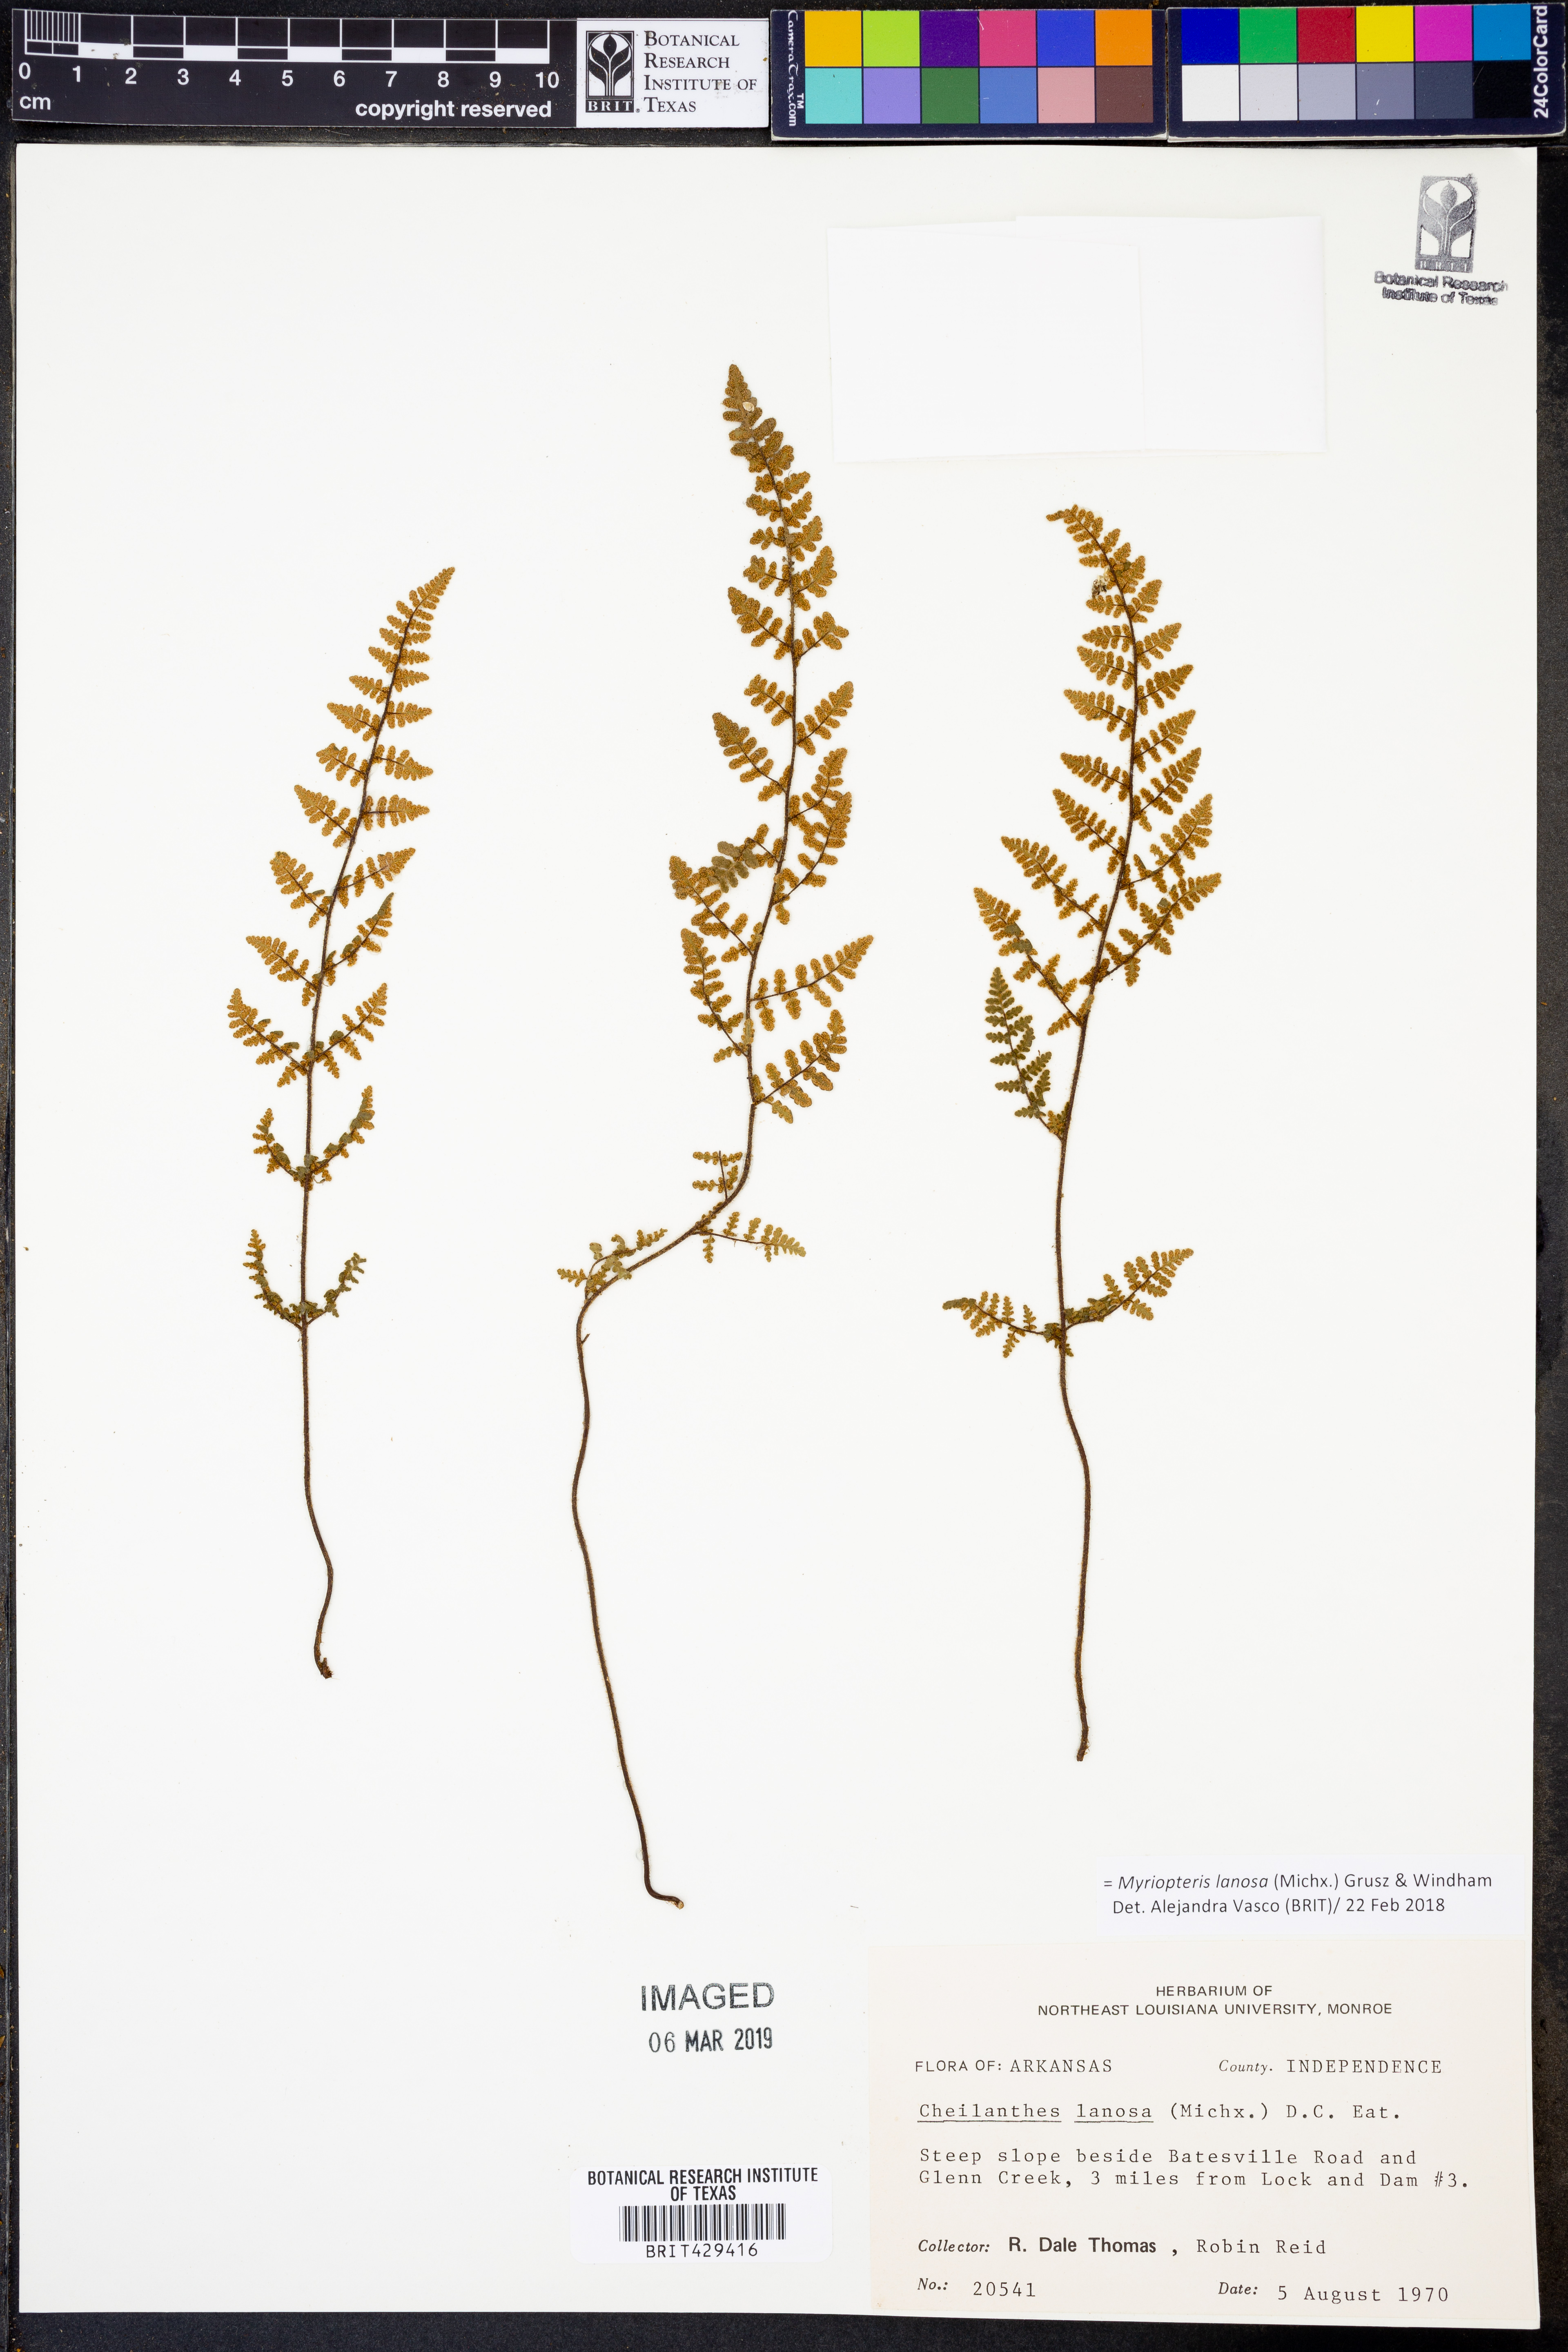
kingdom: Plantae
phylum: Tracheophyta
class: Polypodiopsida
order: Polypodiales
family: Pteridaceae
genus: Myriopteris
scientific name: Myriopteris lanosa
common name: Hairy lip fern
